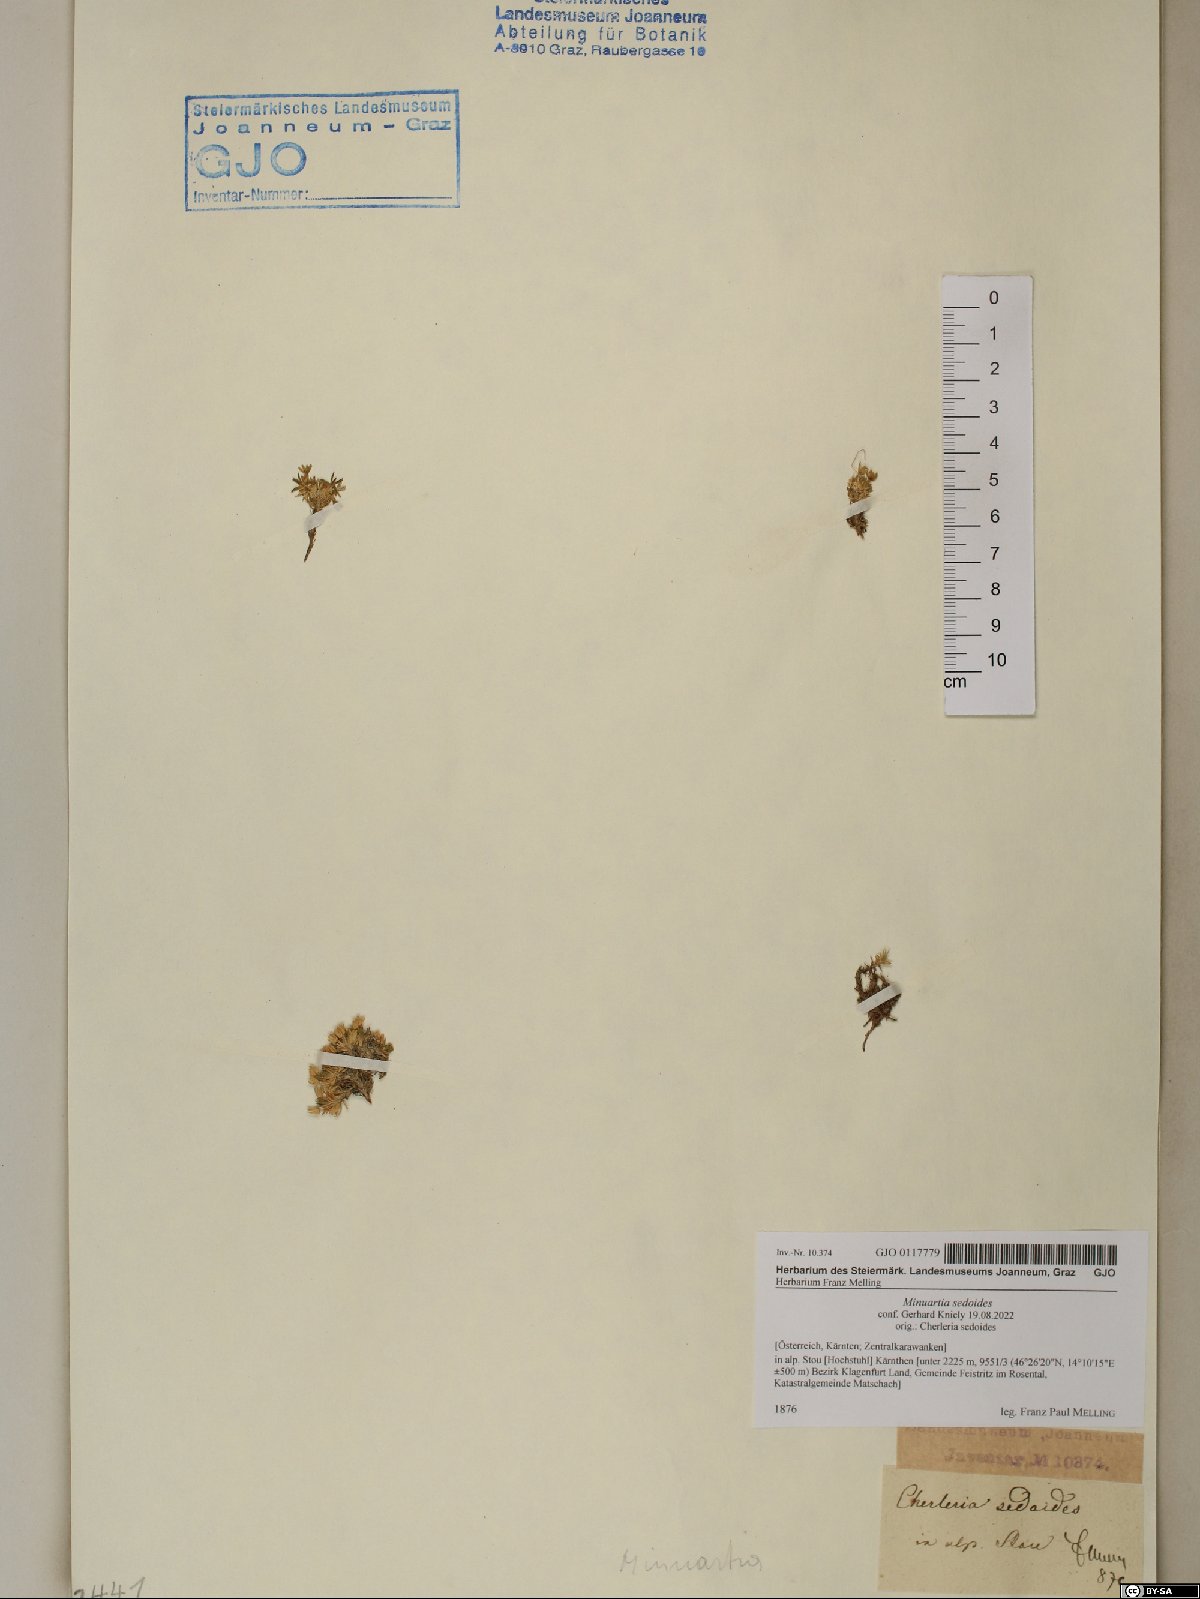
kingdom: Plantae
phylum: Tracheophyta
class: Magnoliopsida
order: Caryophyllales
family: Caryophyllaceae
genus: Cherleria
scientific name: Cherleria sedoides
